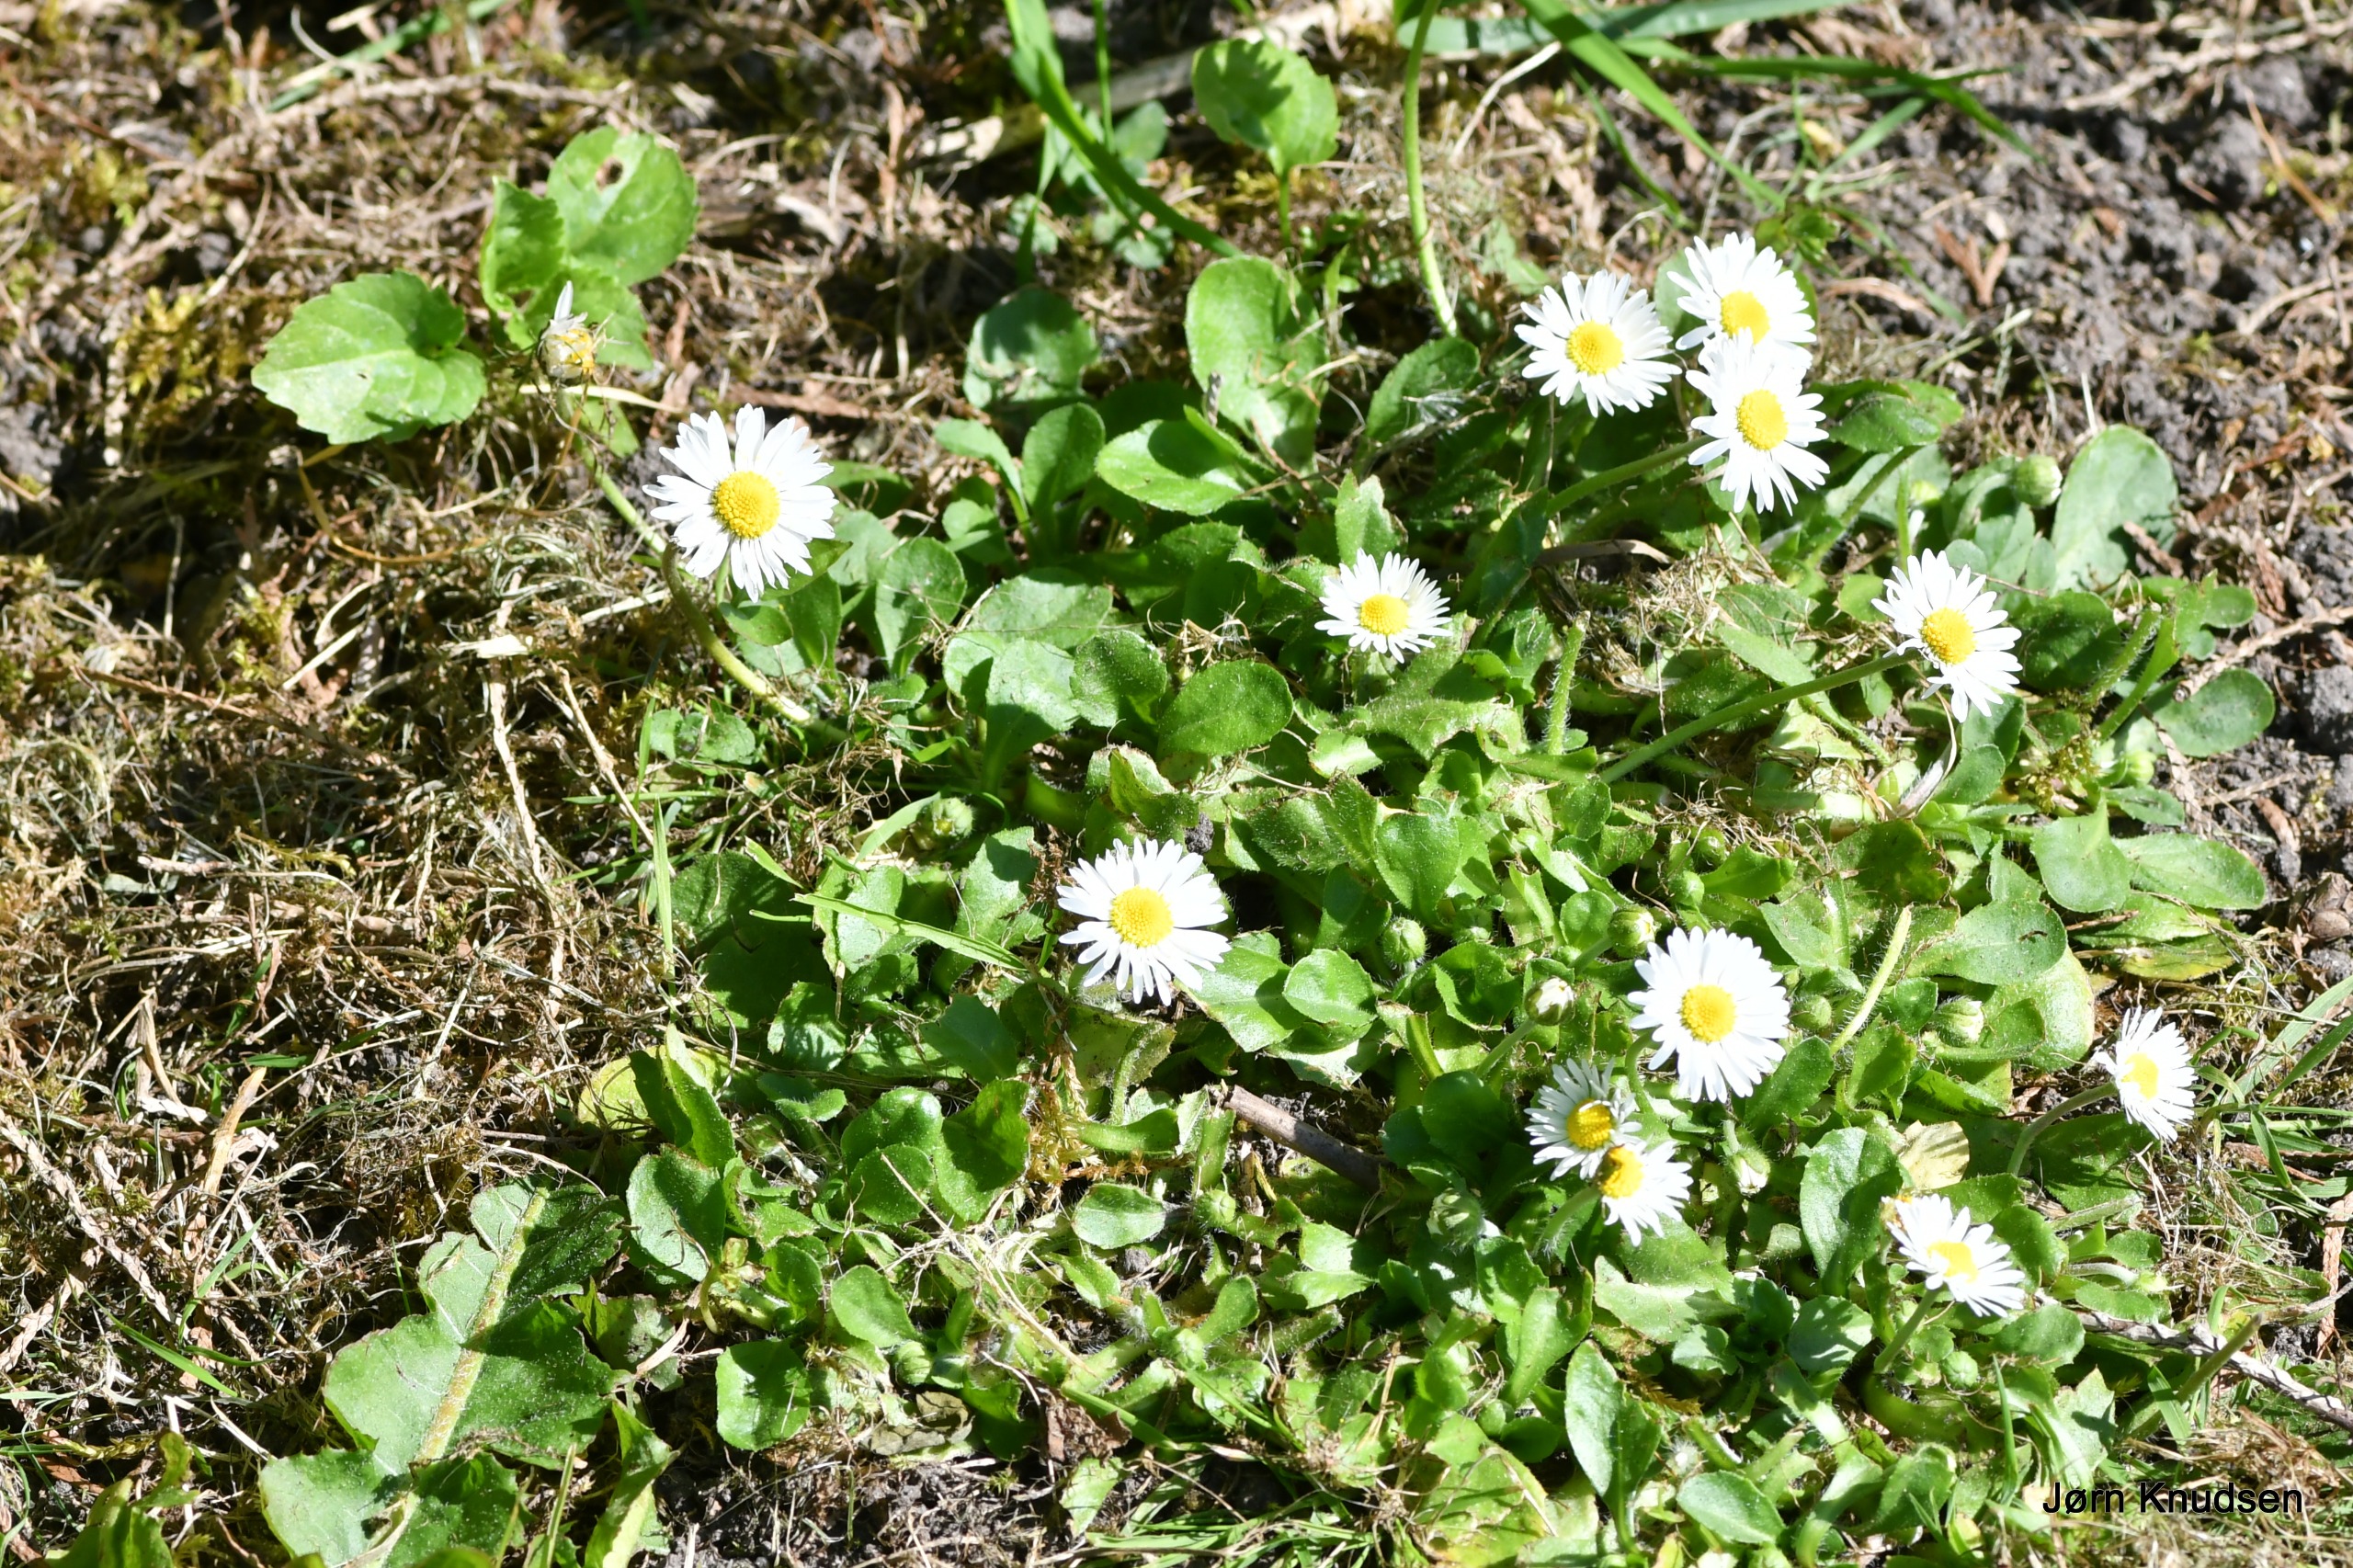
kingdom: Plantae
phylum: Tracheophyta
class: Magnoliopsida
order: Asterales
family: Asteraceae
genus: Bellis
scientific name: Bellis perennis
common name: Tusindfryd
